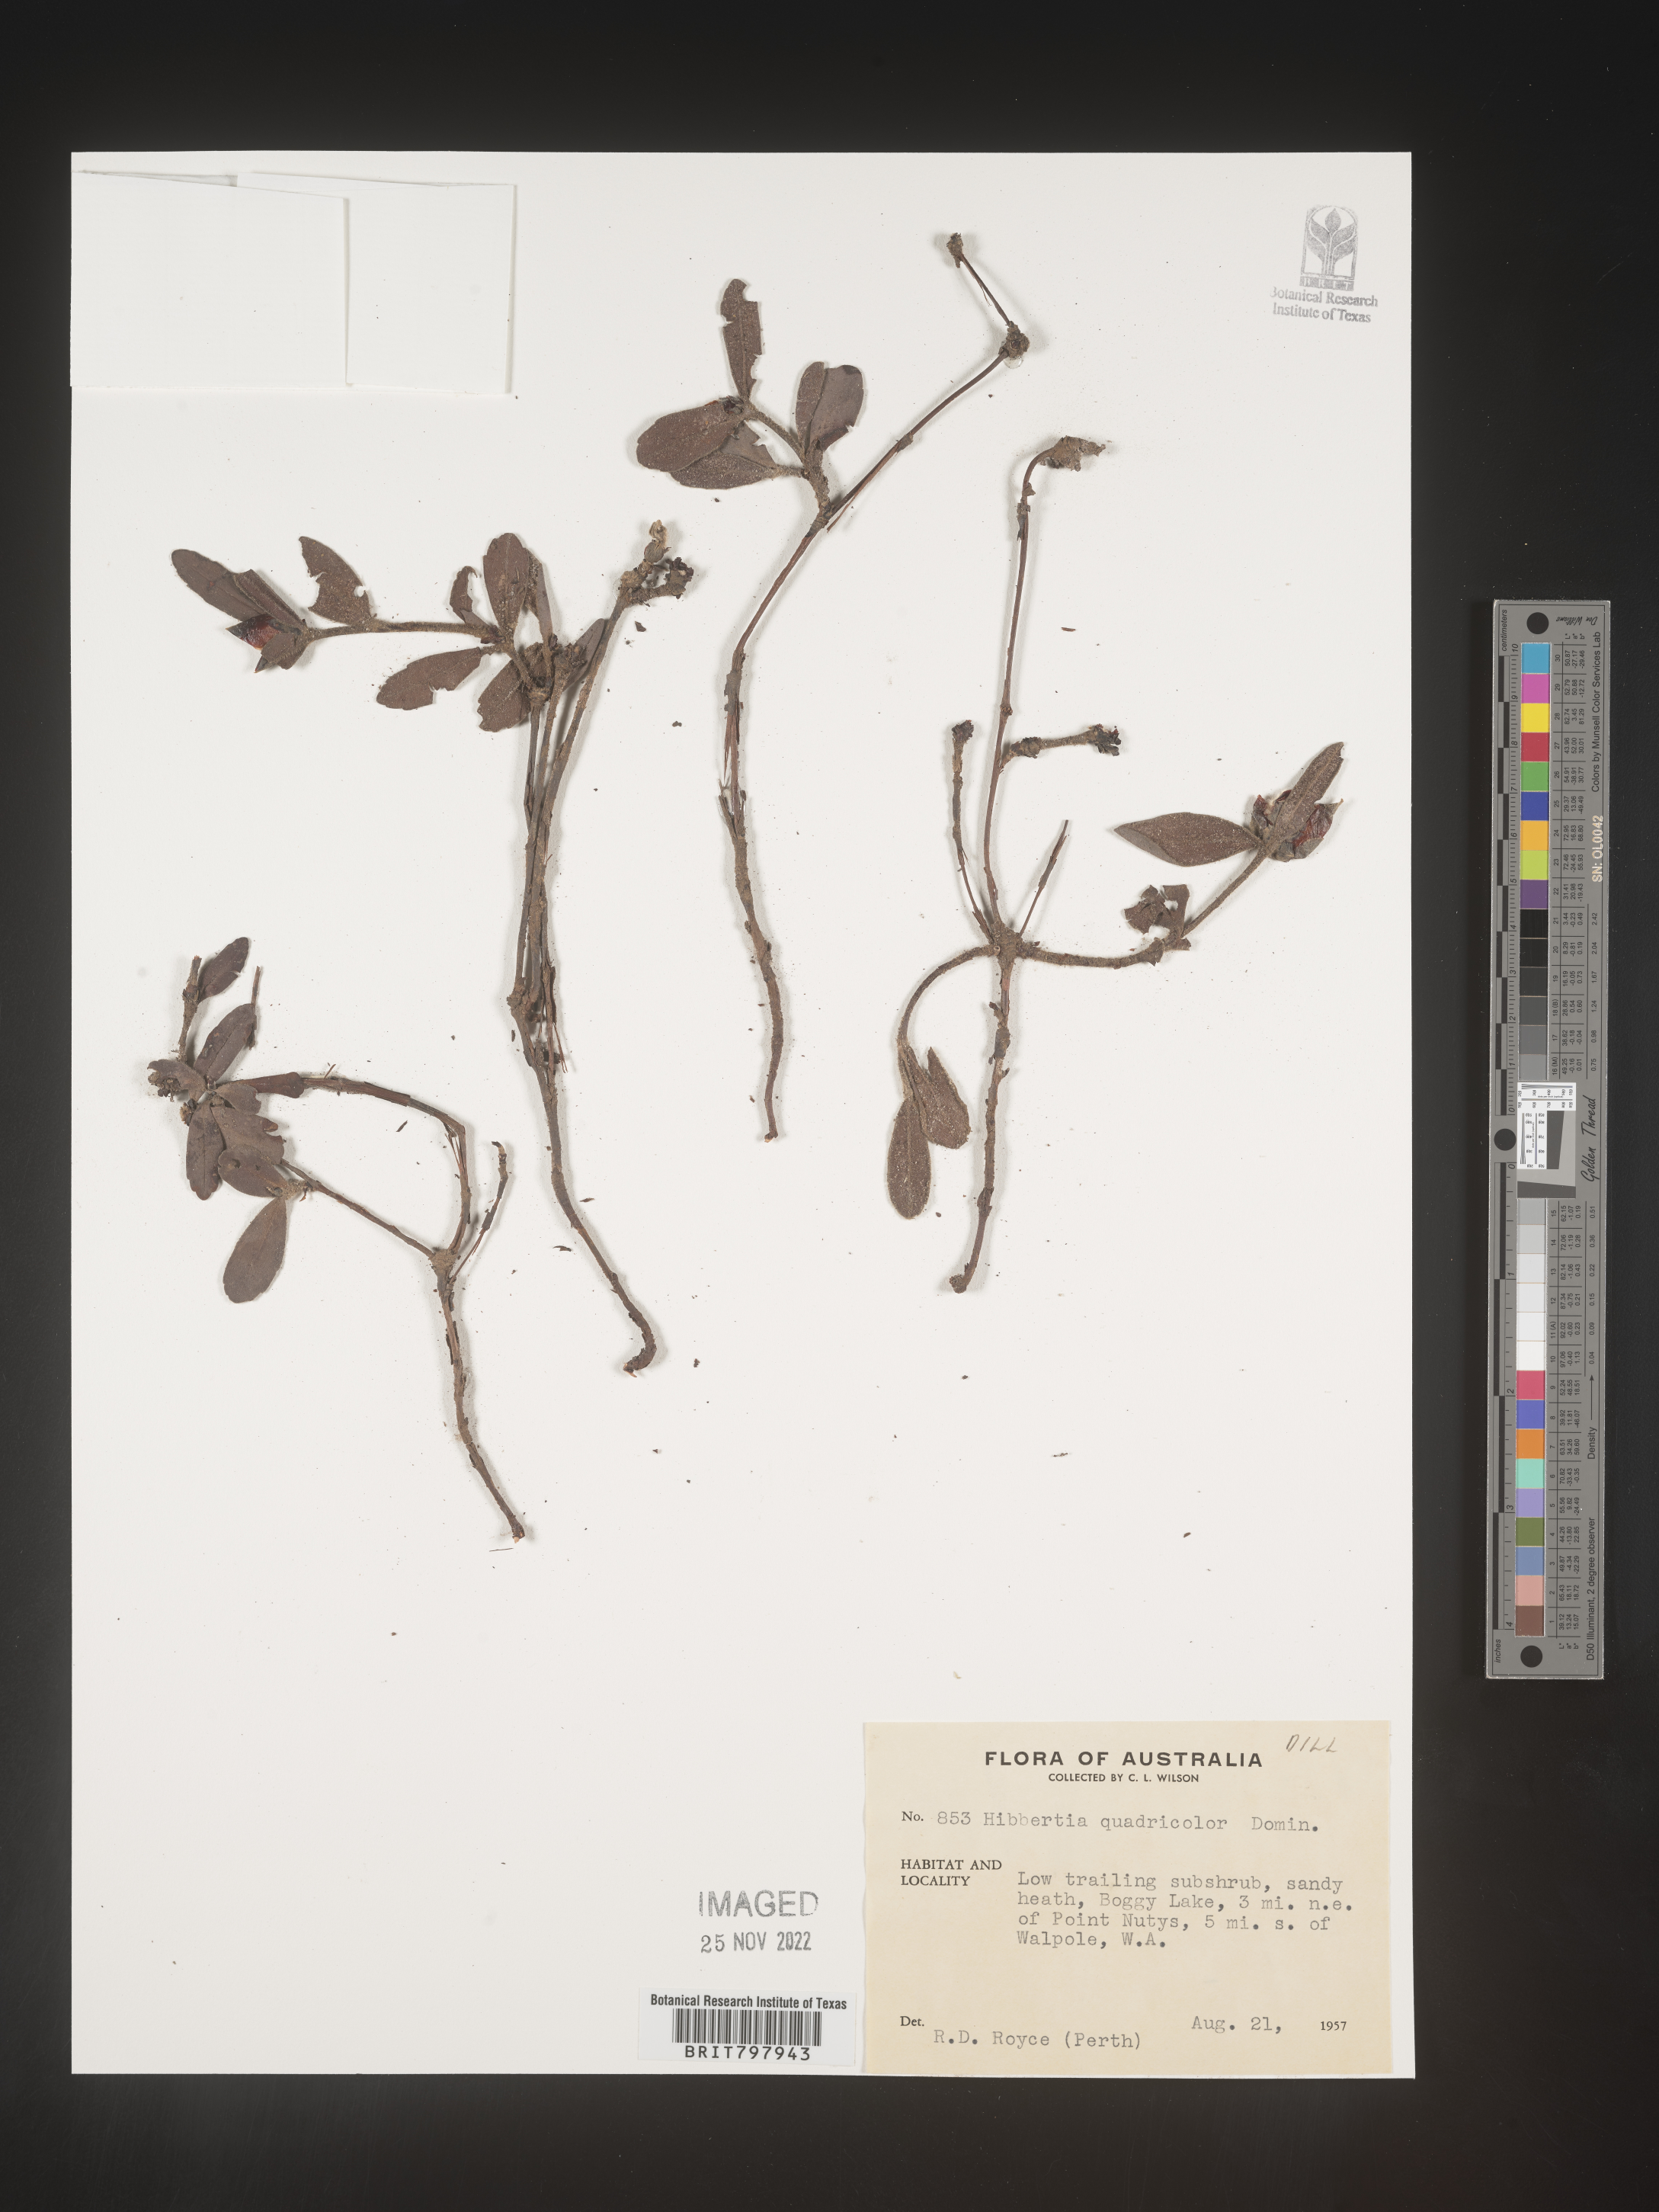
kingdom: Plantae
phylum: Tracheophyta
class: Magnoliopsida
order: Dilleniales
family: Dilleniaceae
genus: Hibbertia
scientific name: Hibbertia
